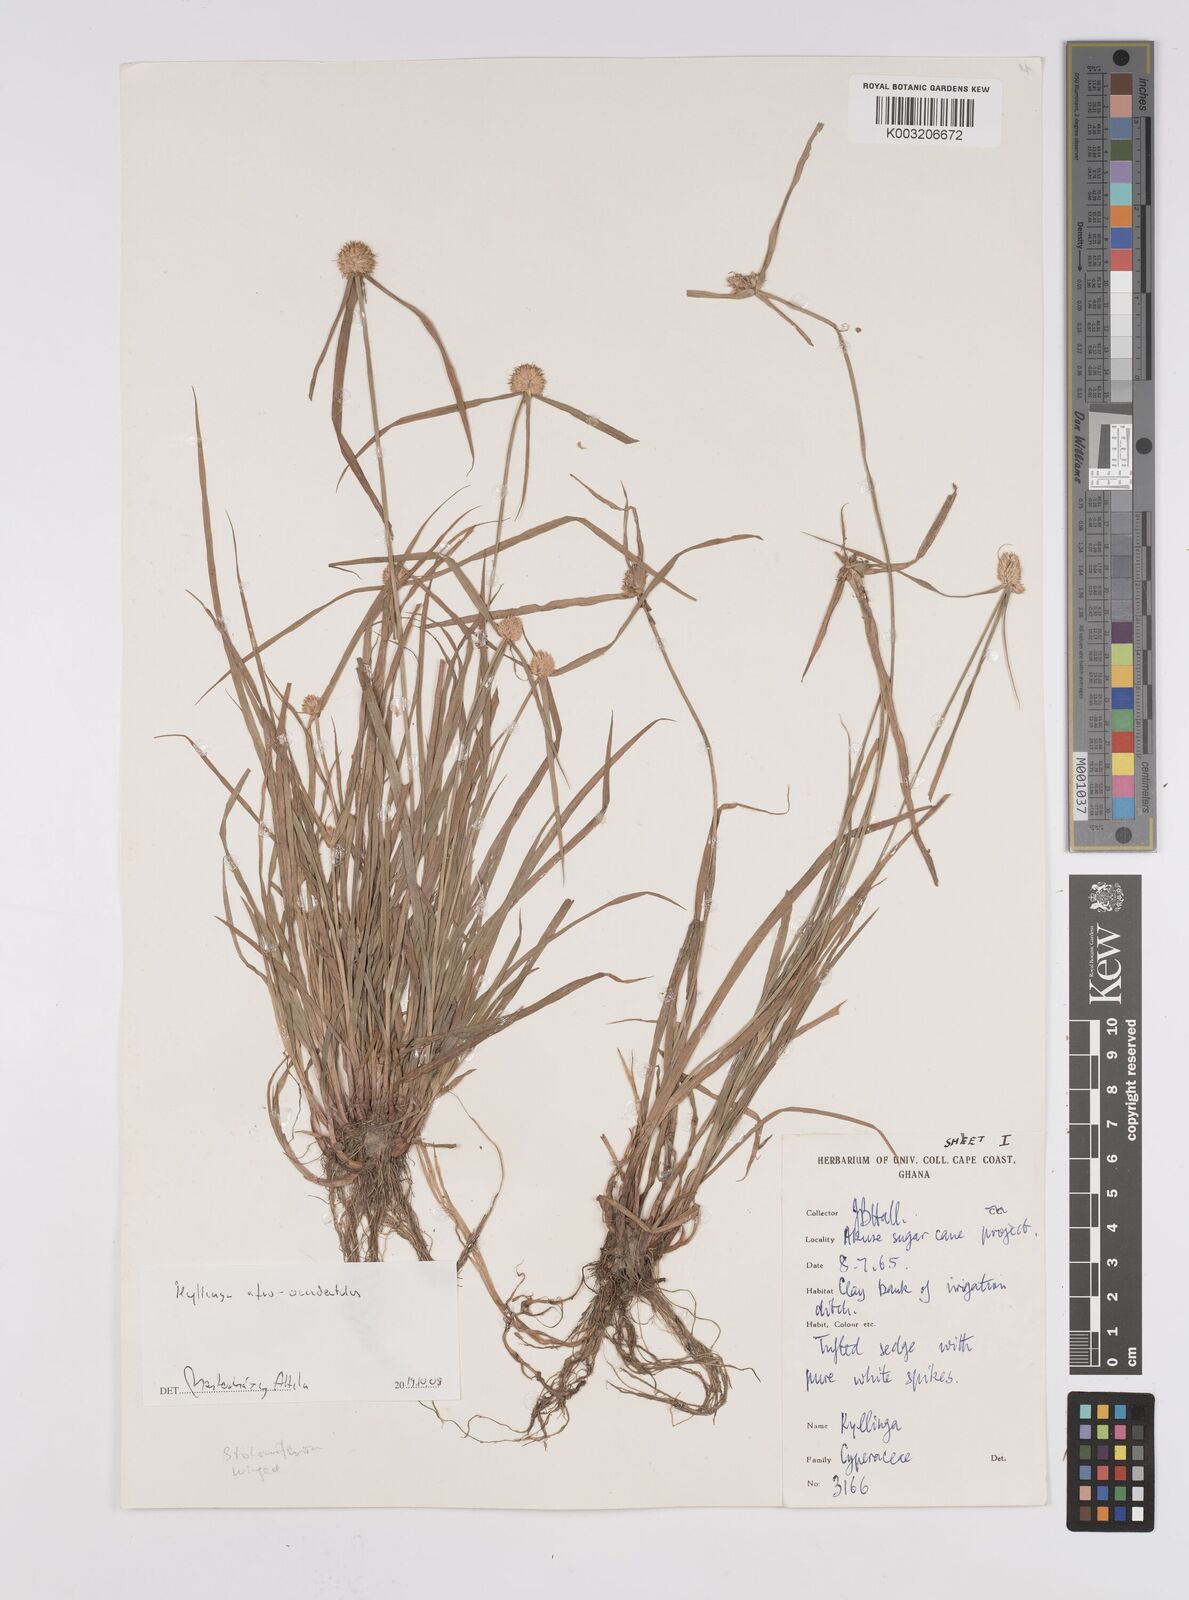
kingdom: Plantae
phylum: Tracheophyta
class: Liliopsida
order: Poales
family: Cyperaceae
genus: Cyperus
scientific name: Cyperus afro-occidentalis
